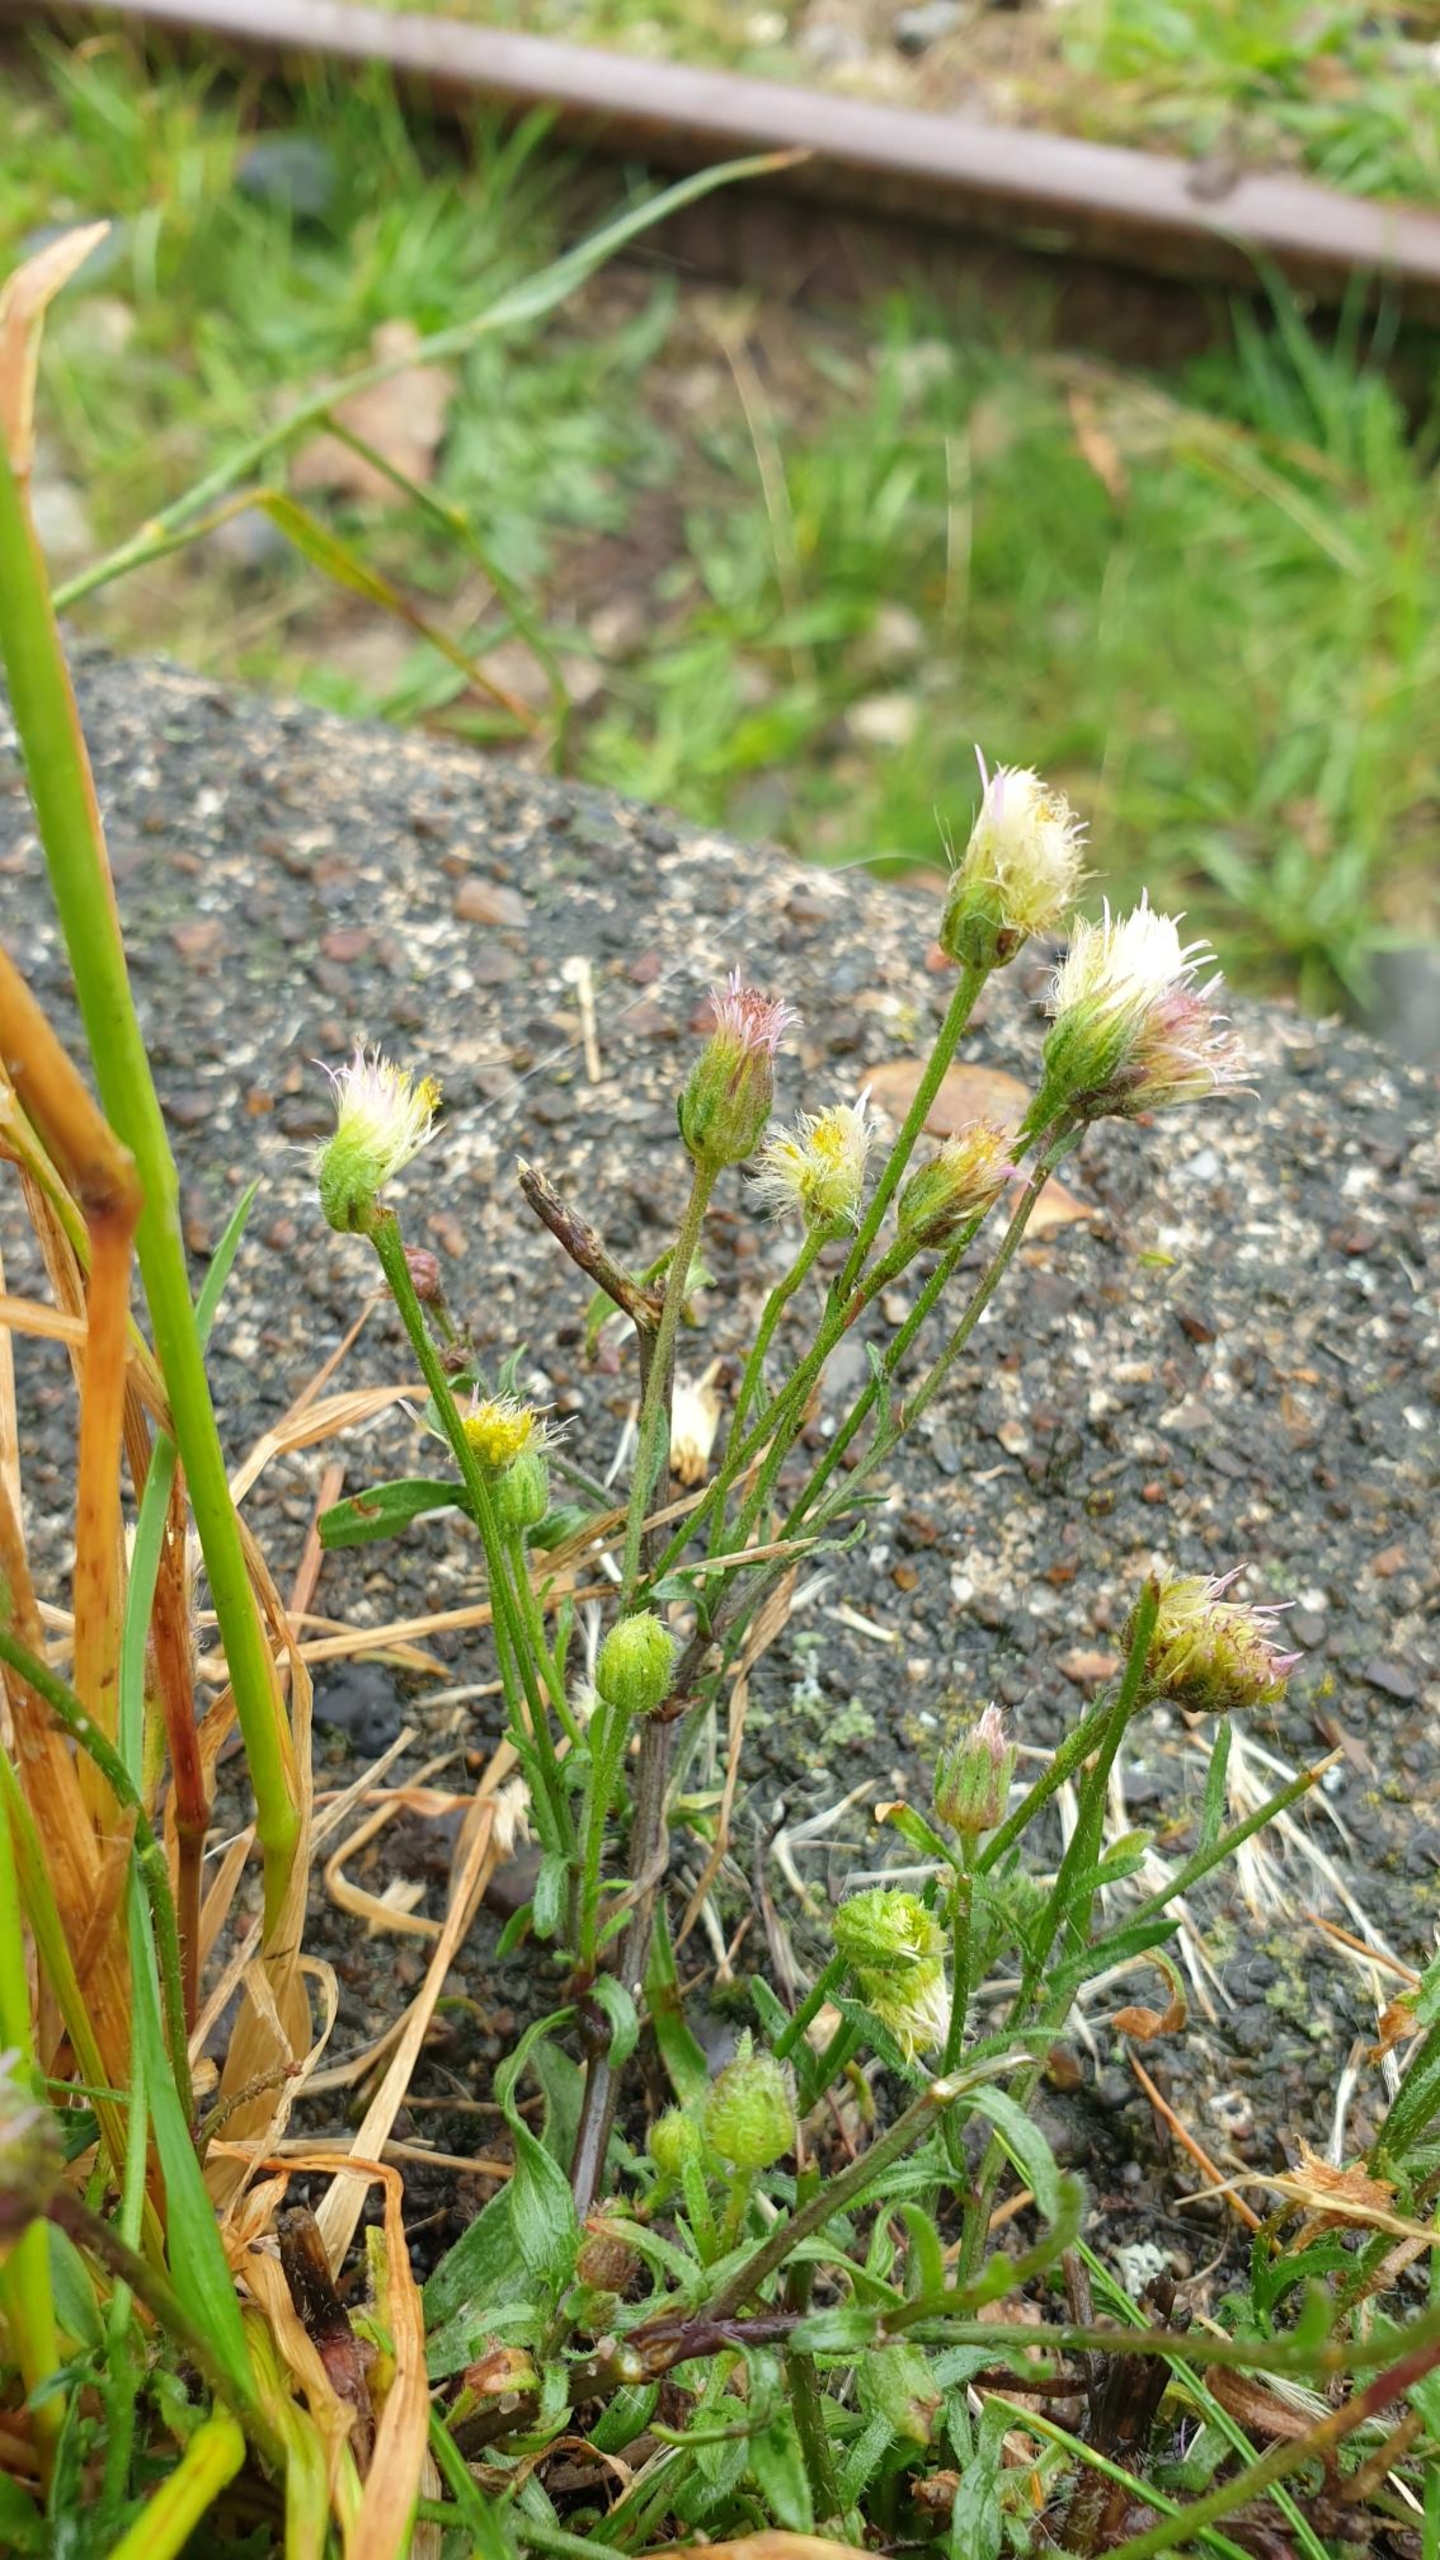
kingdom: Plantae
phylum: Tracheophyta
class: Magnoliopsida
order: Asterales
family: Asteraceae
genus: Erigeron
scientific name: Erigeron muralis
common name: Vreden bakkestjerne
